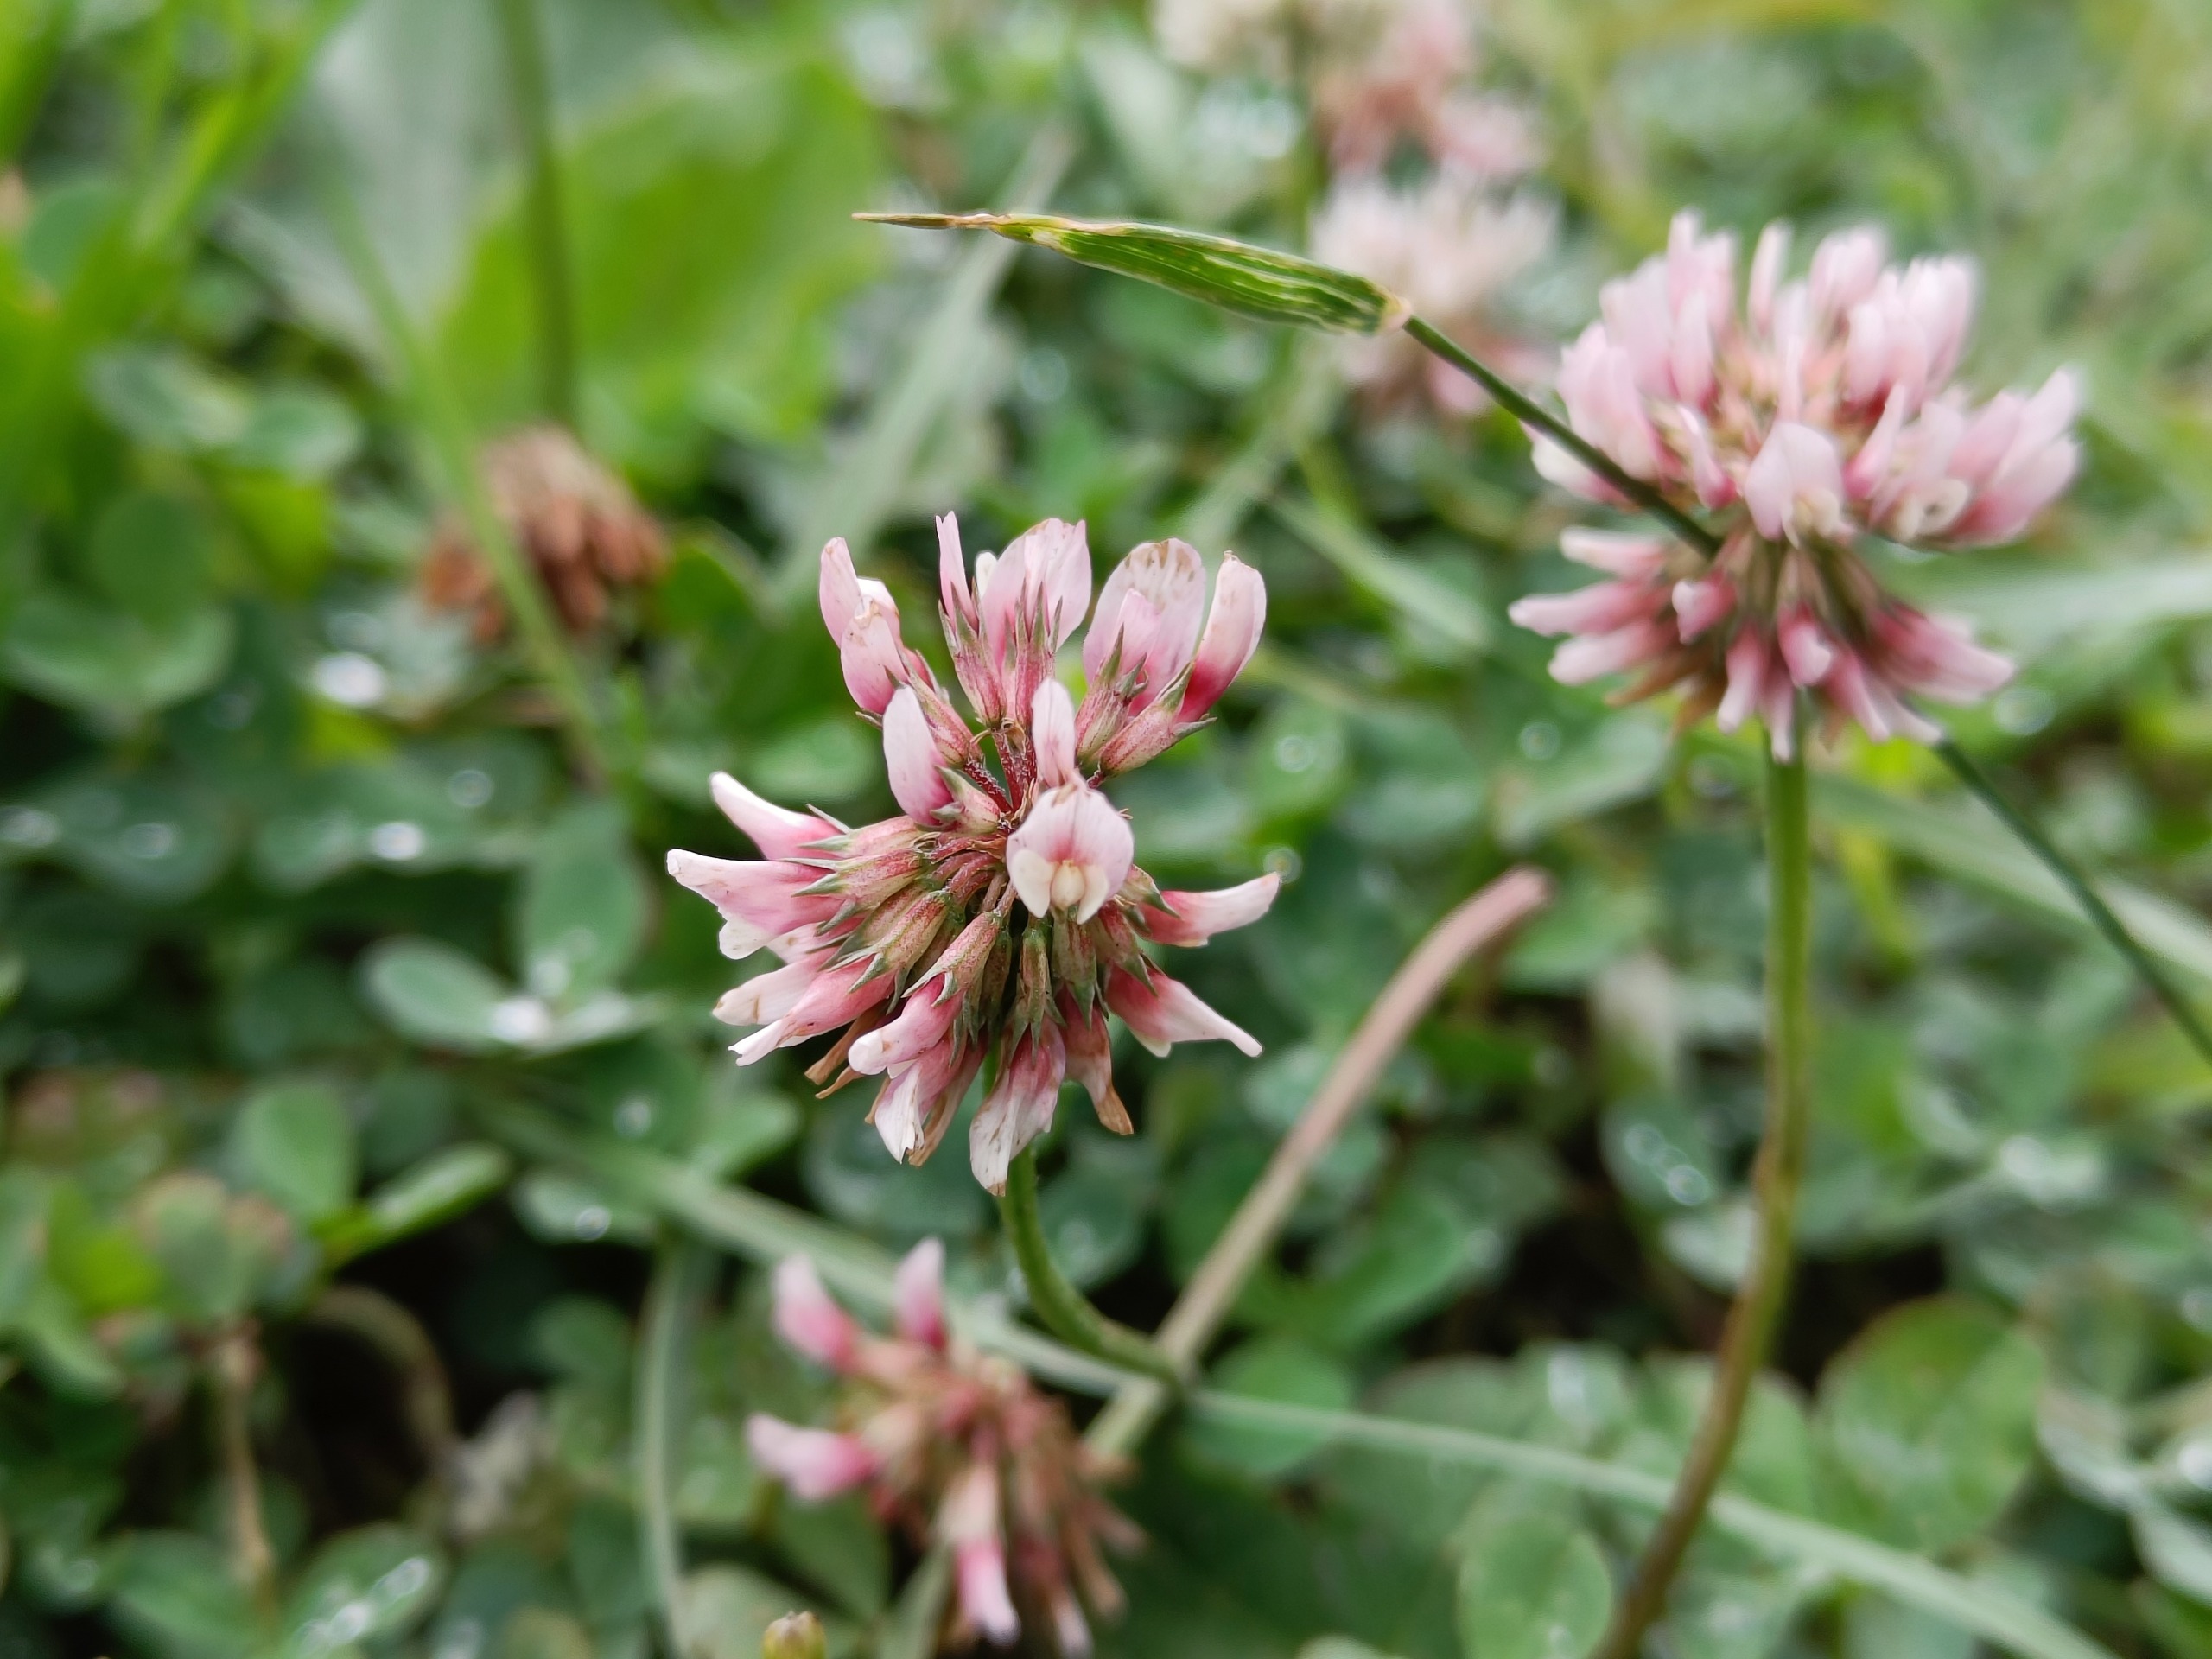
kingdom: Plantae
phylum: Tracheophyta
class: Magnoliopsida
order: Fabales
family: Fabaceae
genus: Trifolium
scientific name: Trifolium repens
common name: Hvid-kløver
